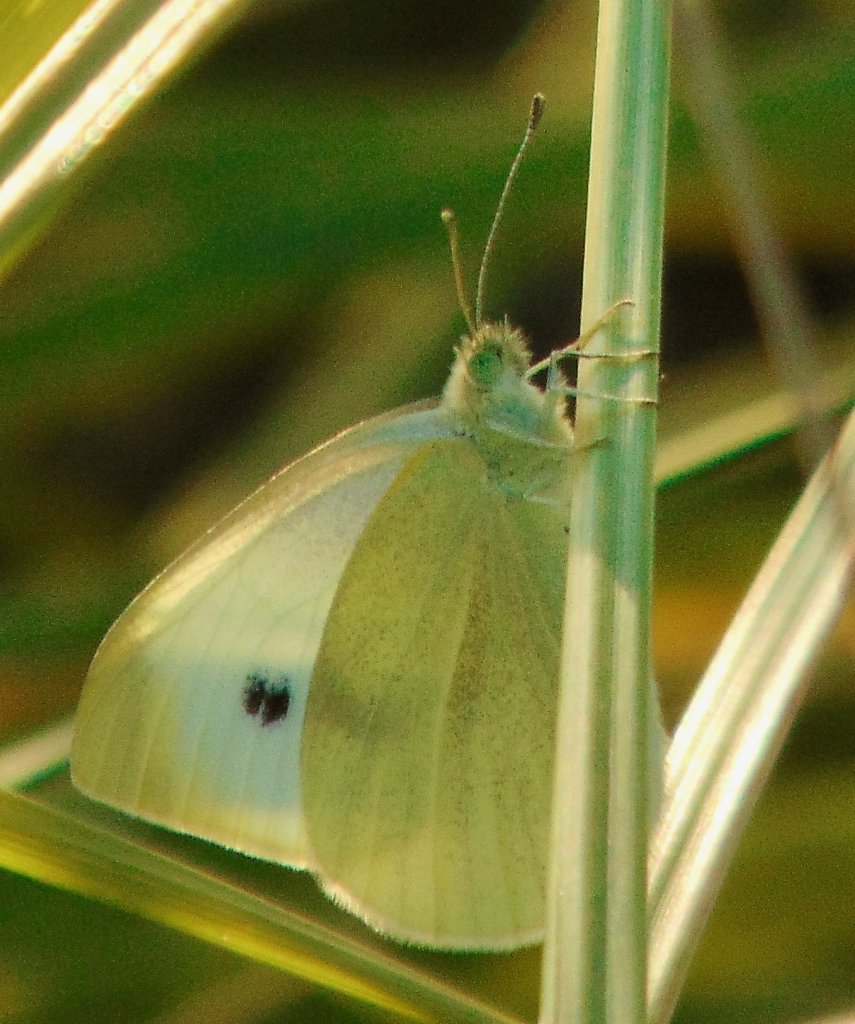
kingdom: Animalia
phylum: Arthropoda
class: Insecta
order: Lepidoptera
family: Pieridae
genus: Pieris
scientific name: Pieris rapae
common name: Cabbage White
